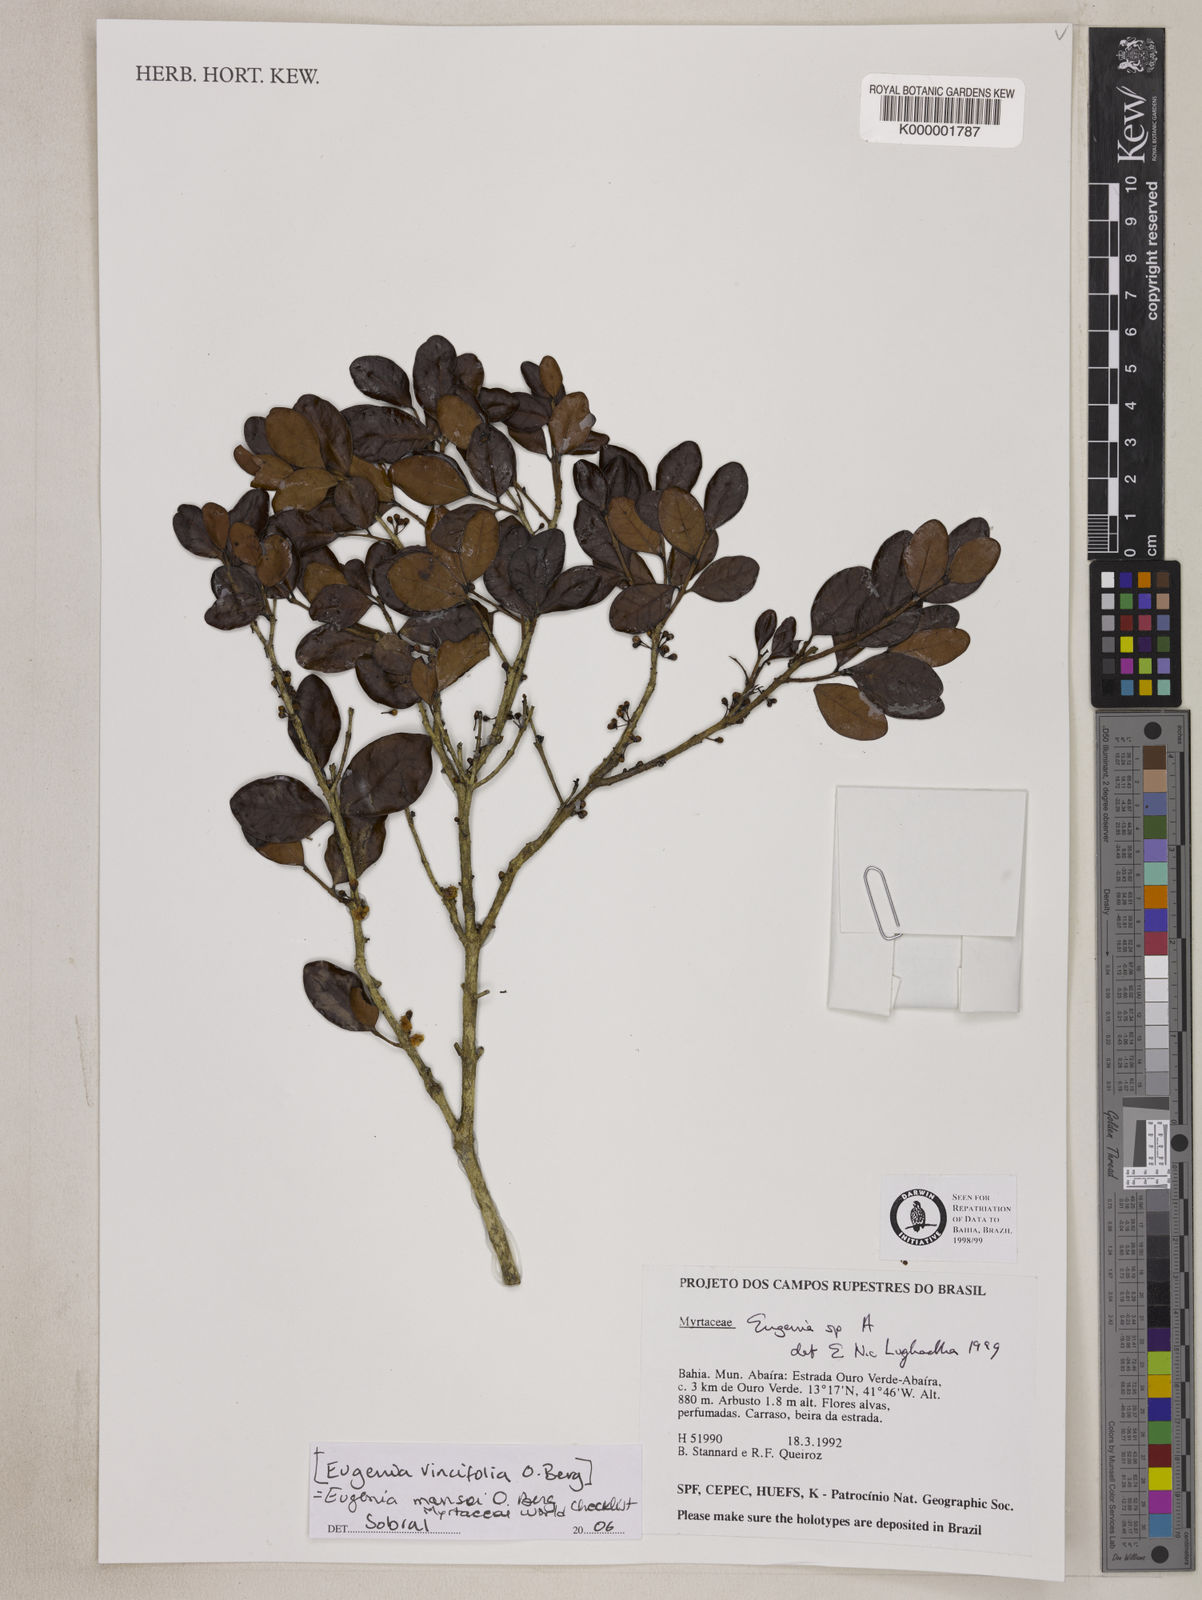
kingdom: Plantae
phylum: Tracheophyta
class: Magnoliopsida
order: Myrtales
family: Myrtaceae
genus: Eugenia
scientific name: Eugenia
